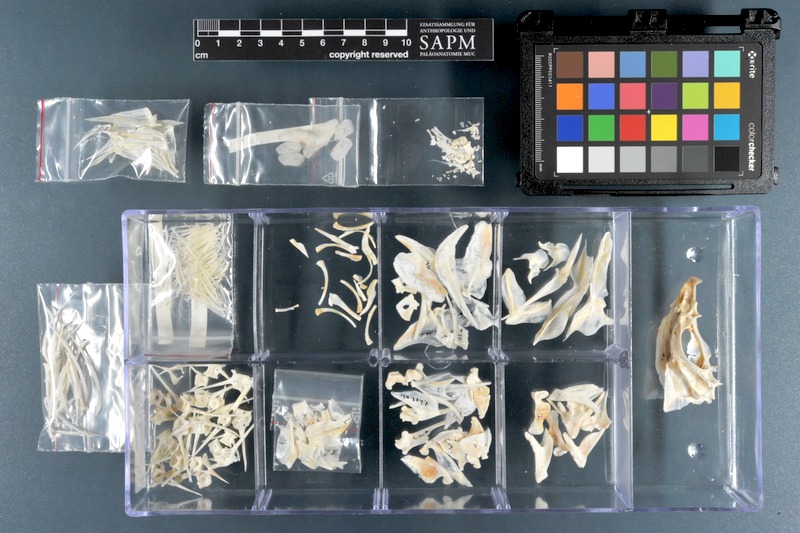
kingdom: Animalia
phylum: Chordata
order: Perciformes
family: Lethrinidae
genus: Lethrinus
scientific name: Lethrinus atlanticus
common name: Atlantic emperor
